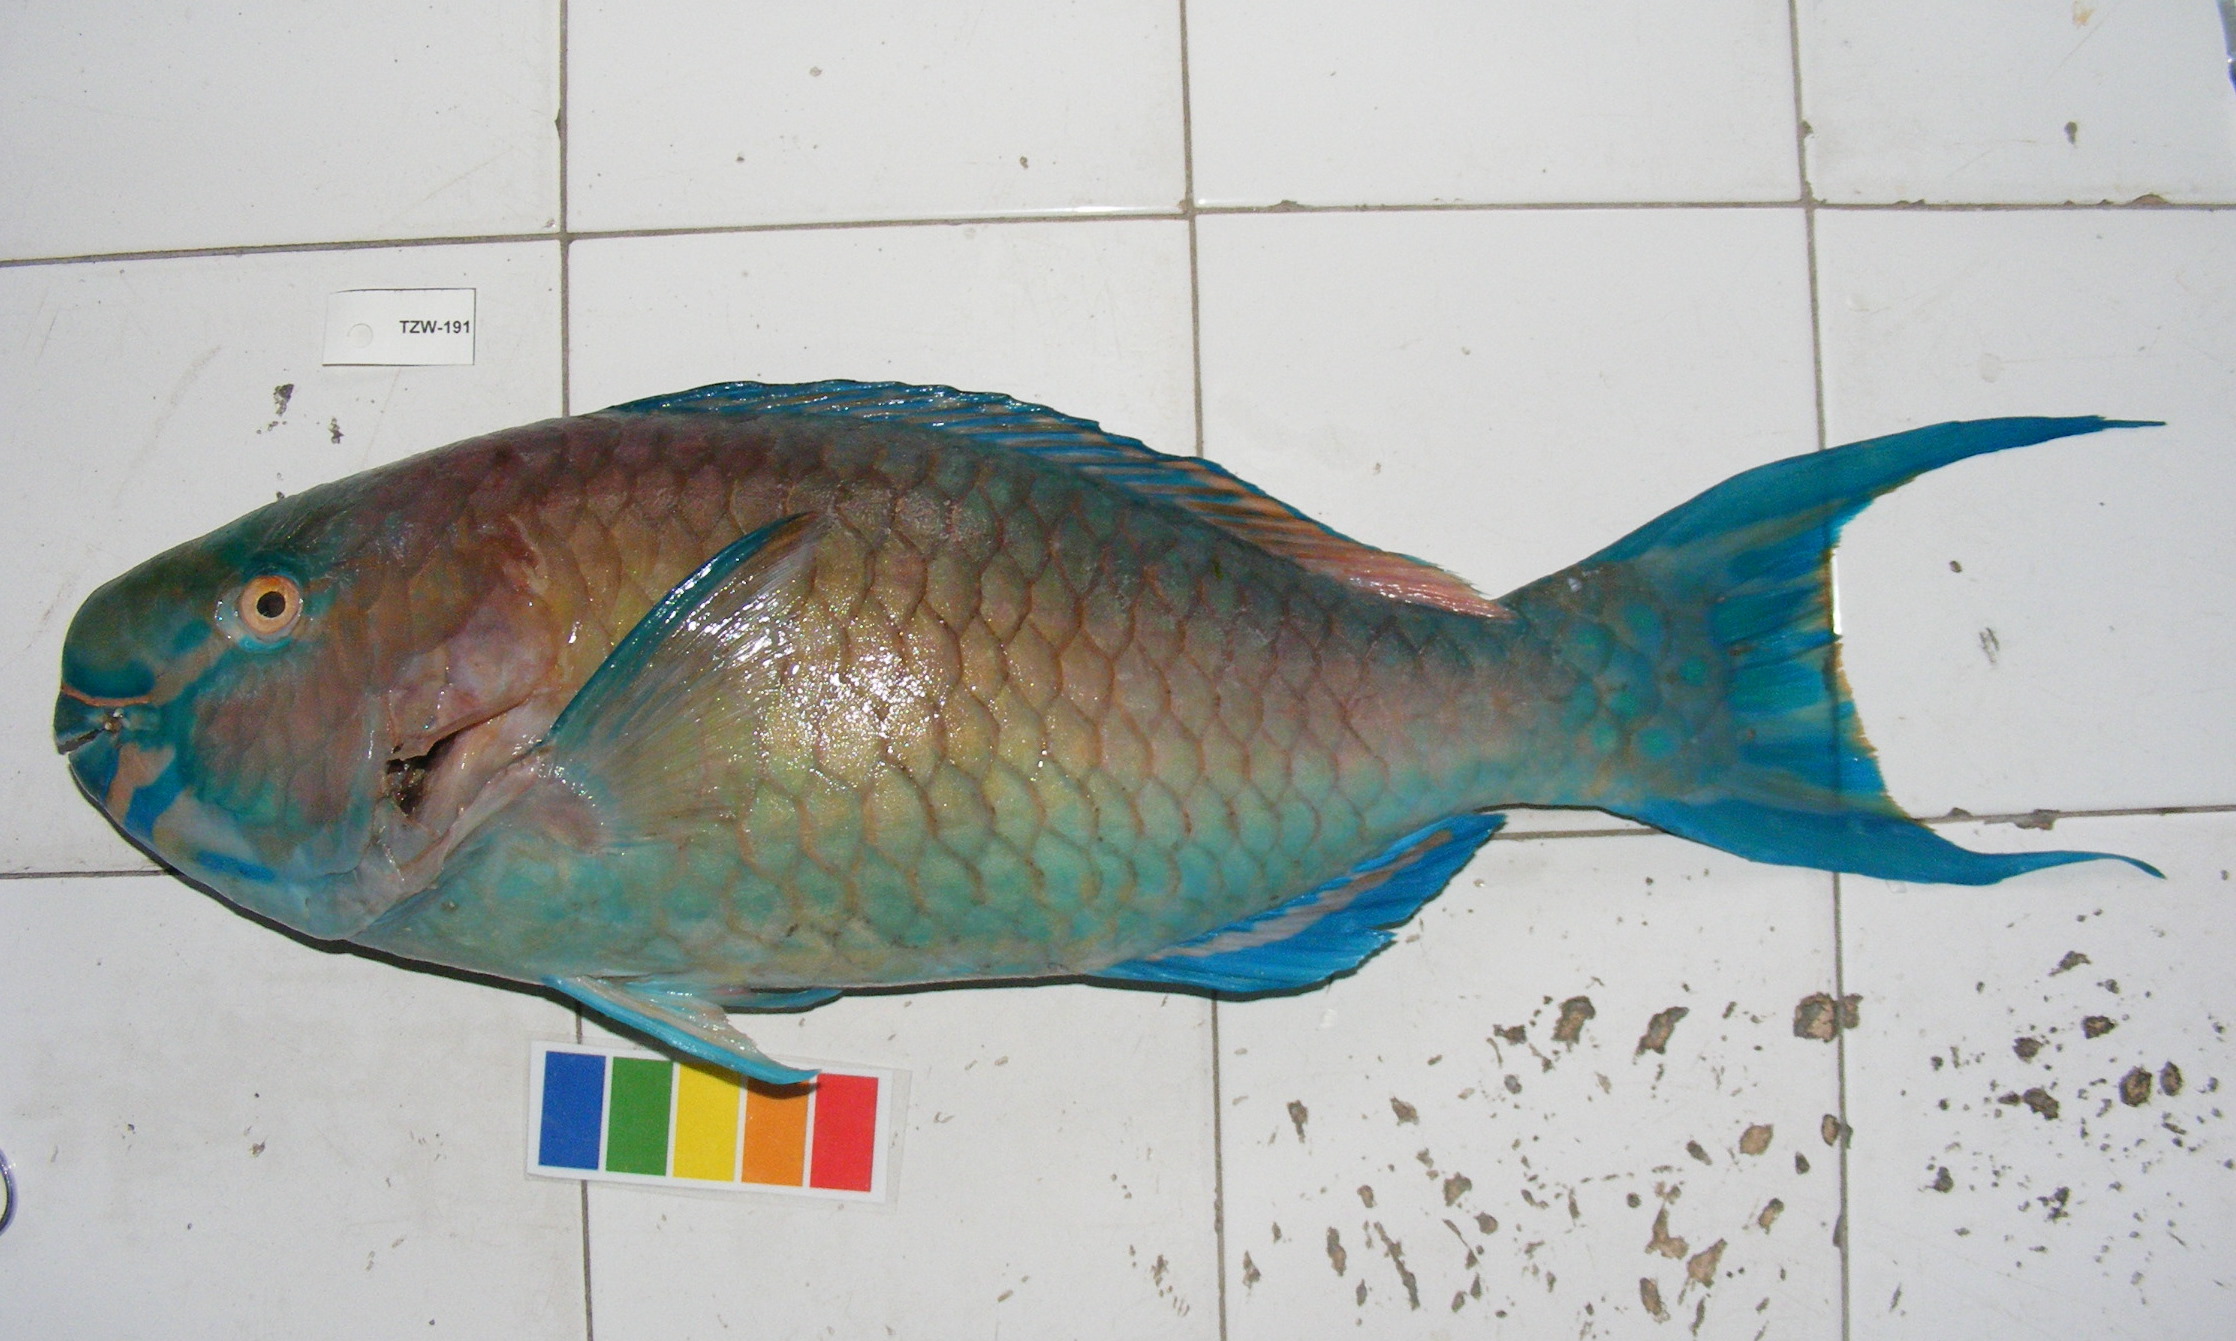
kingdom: Animalia
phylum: Chordata
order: Perciformes
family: Scaridae
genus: Scarus
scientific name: Scarus rubroviolaceus
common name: Ember parrotfish
